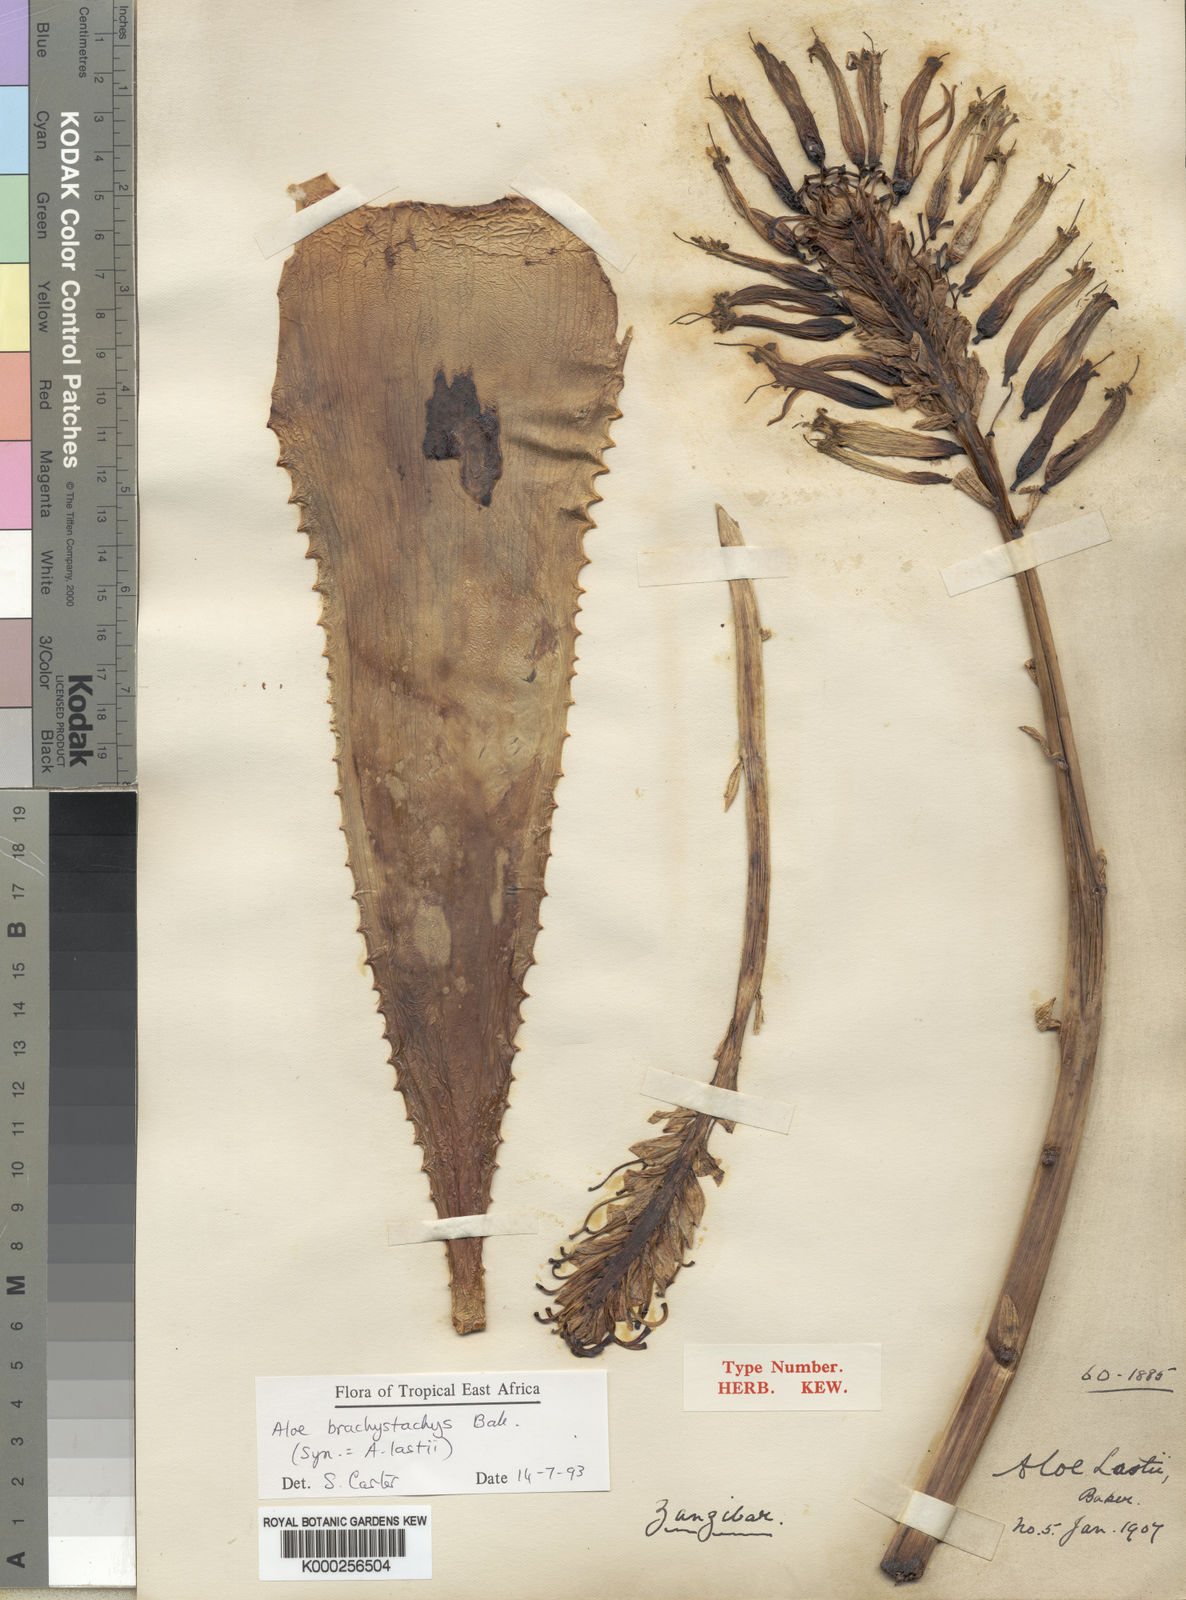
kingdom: Plantae
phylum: Tracheophyta
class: Liliopsida
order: Asparagales
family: Asphodelaceae
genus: Aloe
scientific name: Aloe brachystachys
